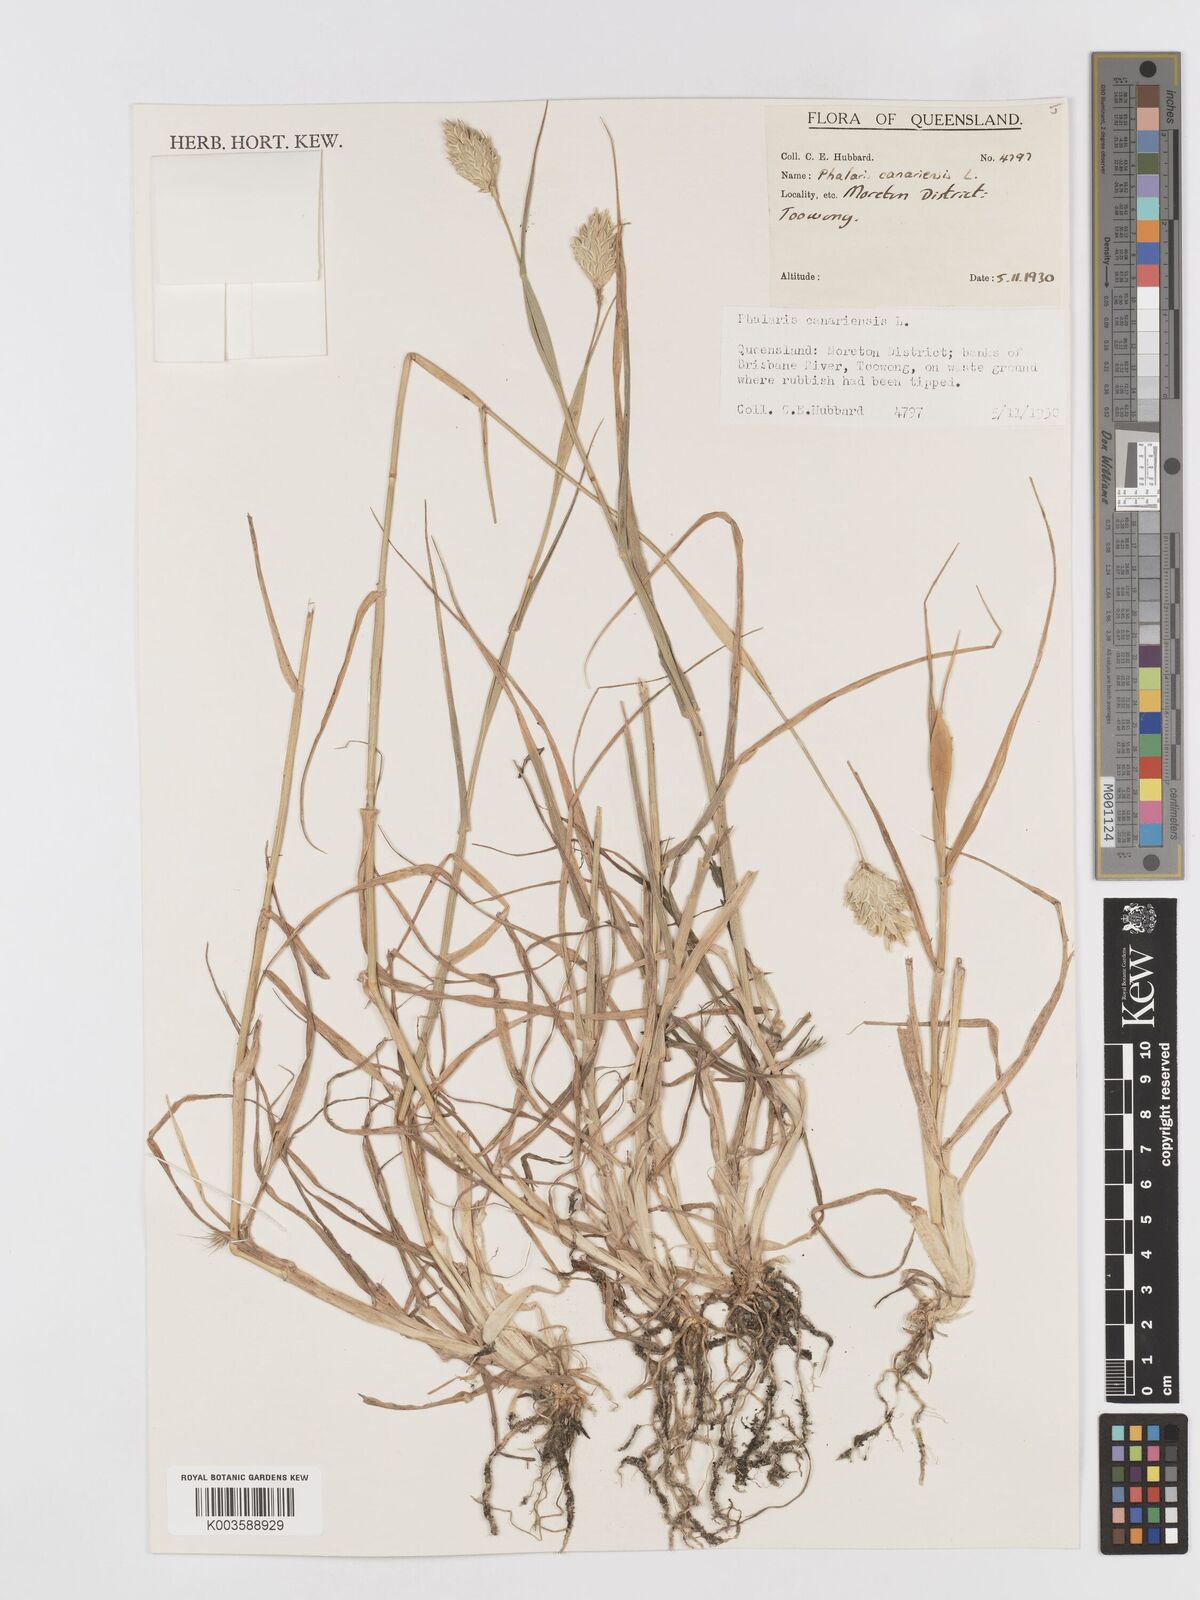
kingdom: Plantae
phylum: Tracheophyta
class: Liliopsida
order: Poales
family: Poaceae
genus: Phalaris
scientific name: Phalaris canariensis
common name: Annual canarygrass
